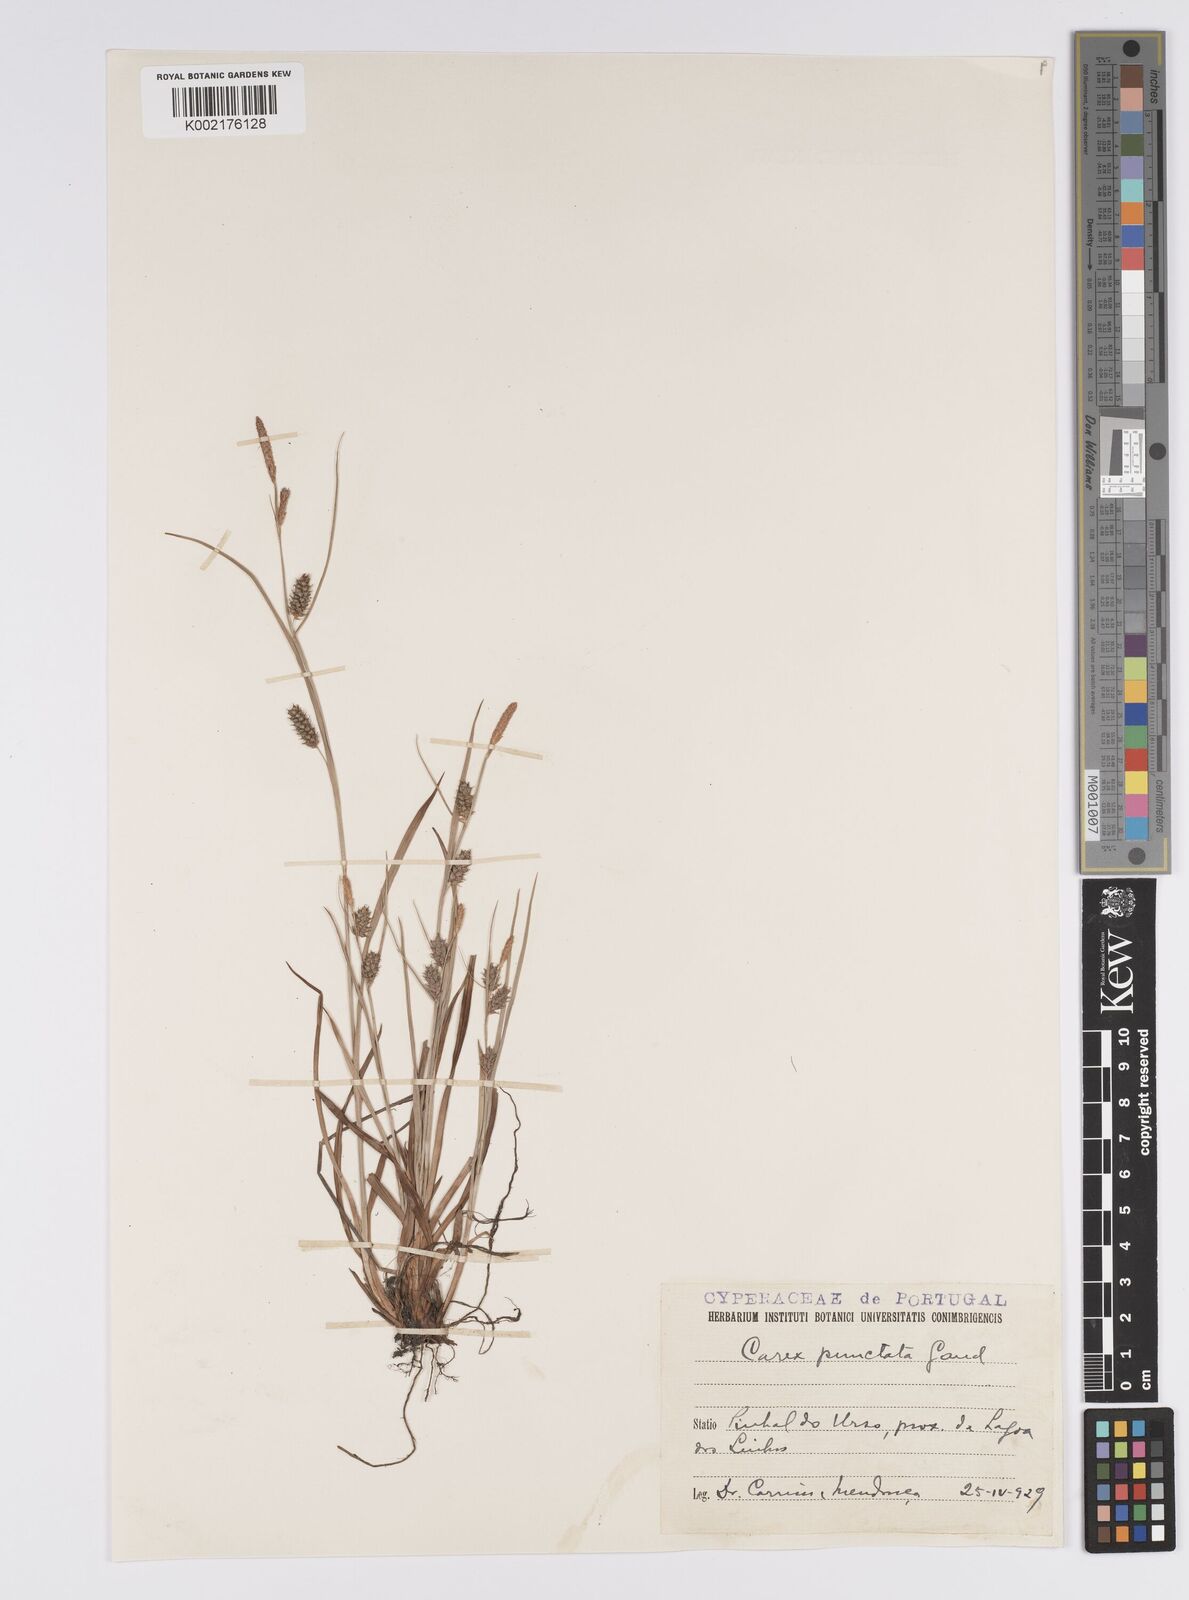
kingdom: Plantae
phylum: Tracheophyta
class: Liliopsida
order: Poales
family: Cyperaceae
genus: Carex
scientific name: Carex punctata
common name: Dotted sedge
